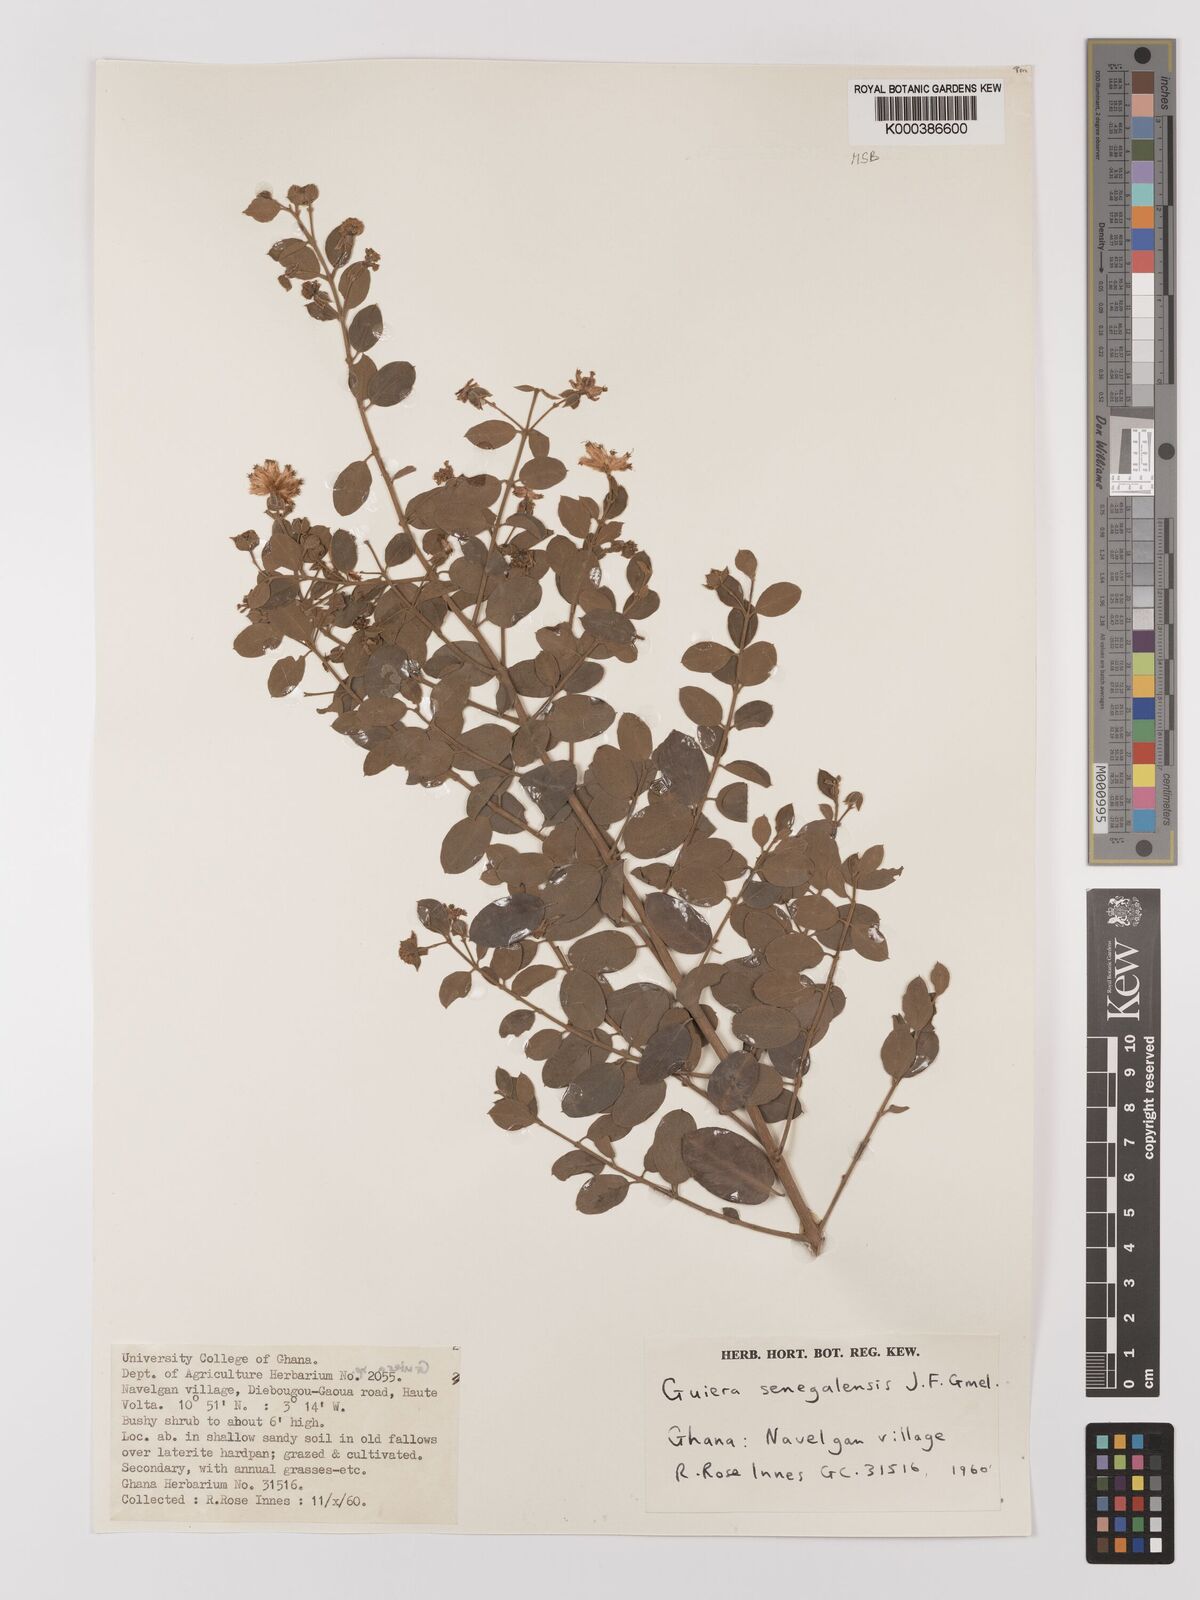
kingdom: Plantae
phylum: Tracheophyta
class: Magnoliopsida
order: Myrtales
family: Combretaceae
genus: Guiera
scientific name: Guiera senegalensis
